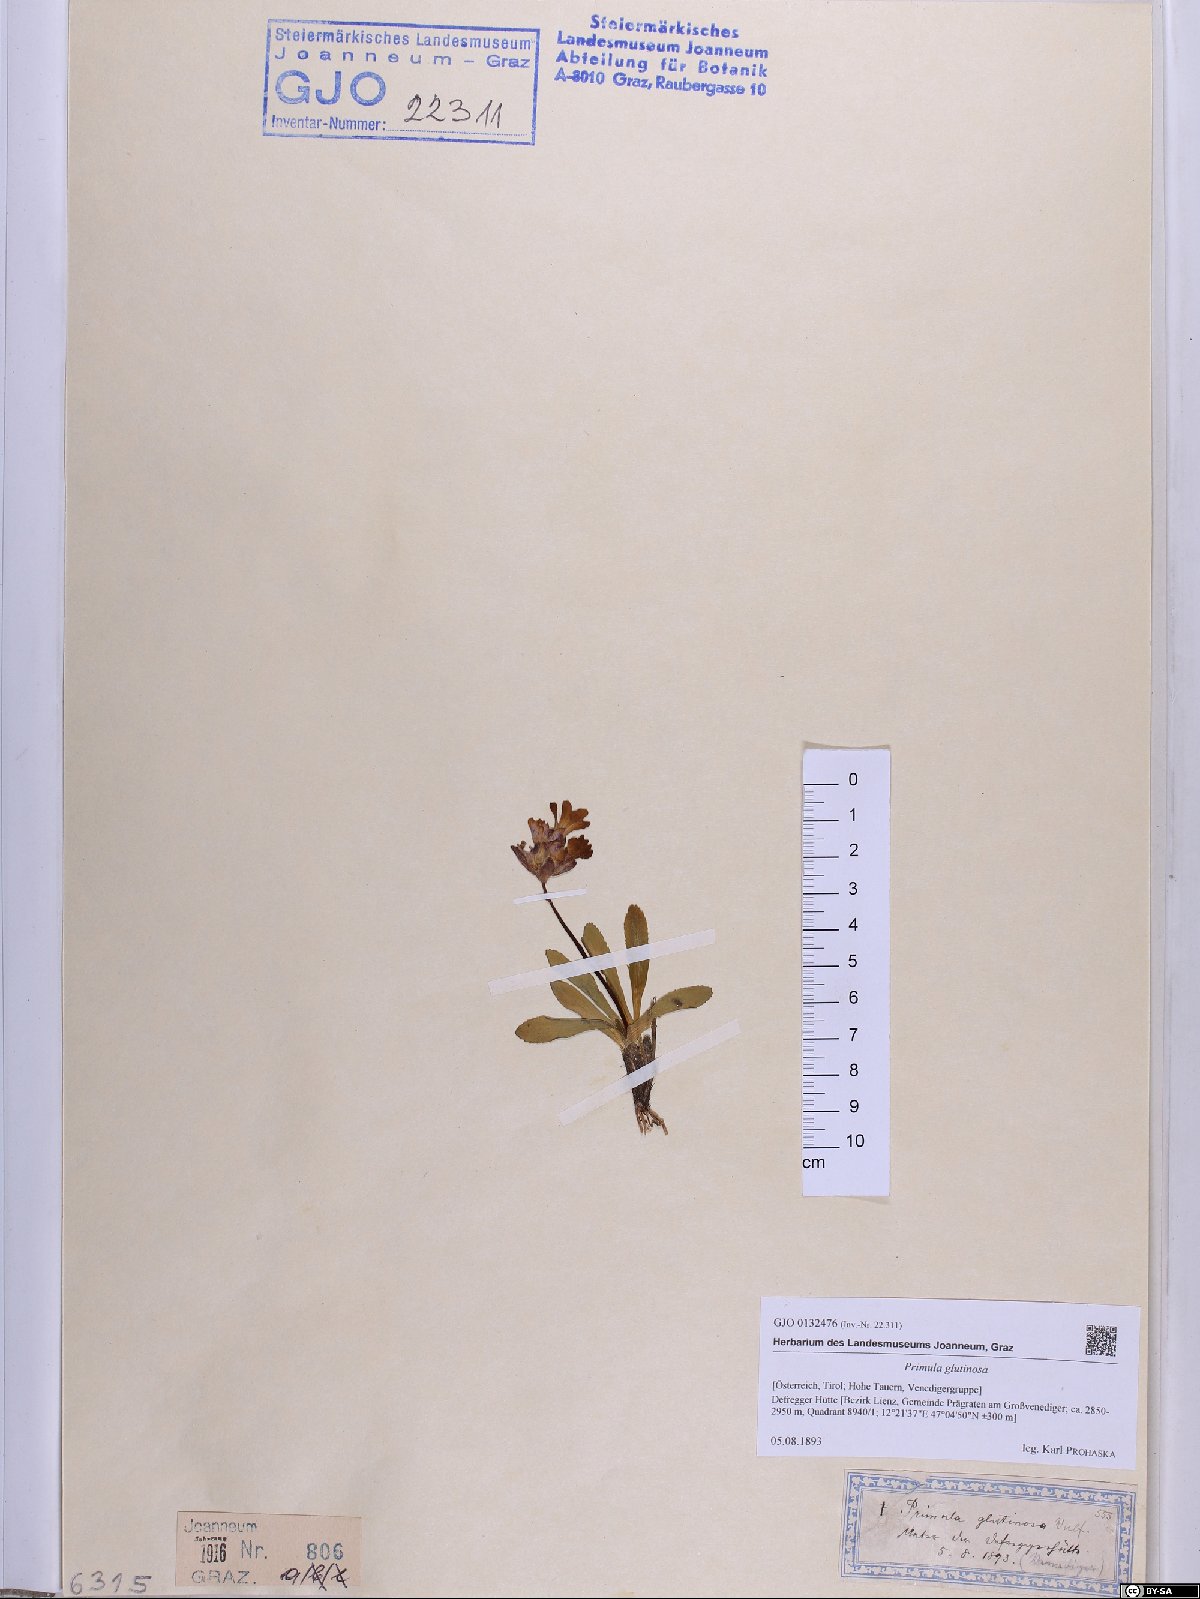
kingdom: Plantae
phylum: Tracheophyta
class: Magnoliopsida
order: Ericales
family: Primulaceae
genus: Primula
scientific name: Primula glutinosa
